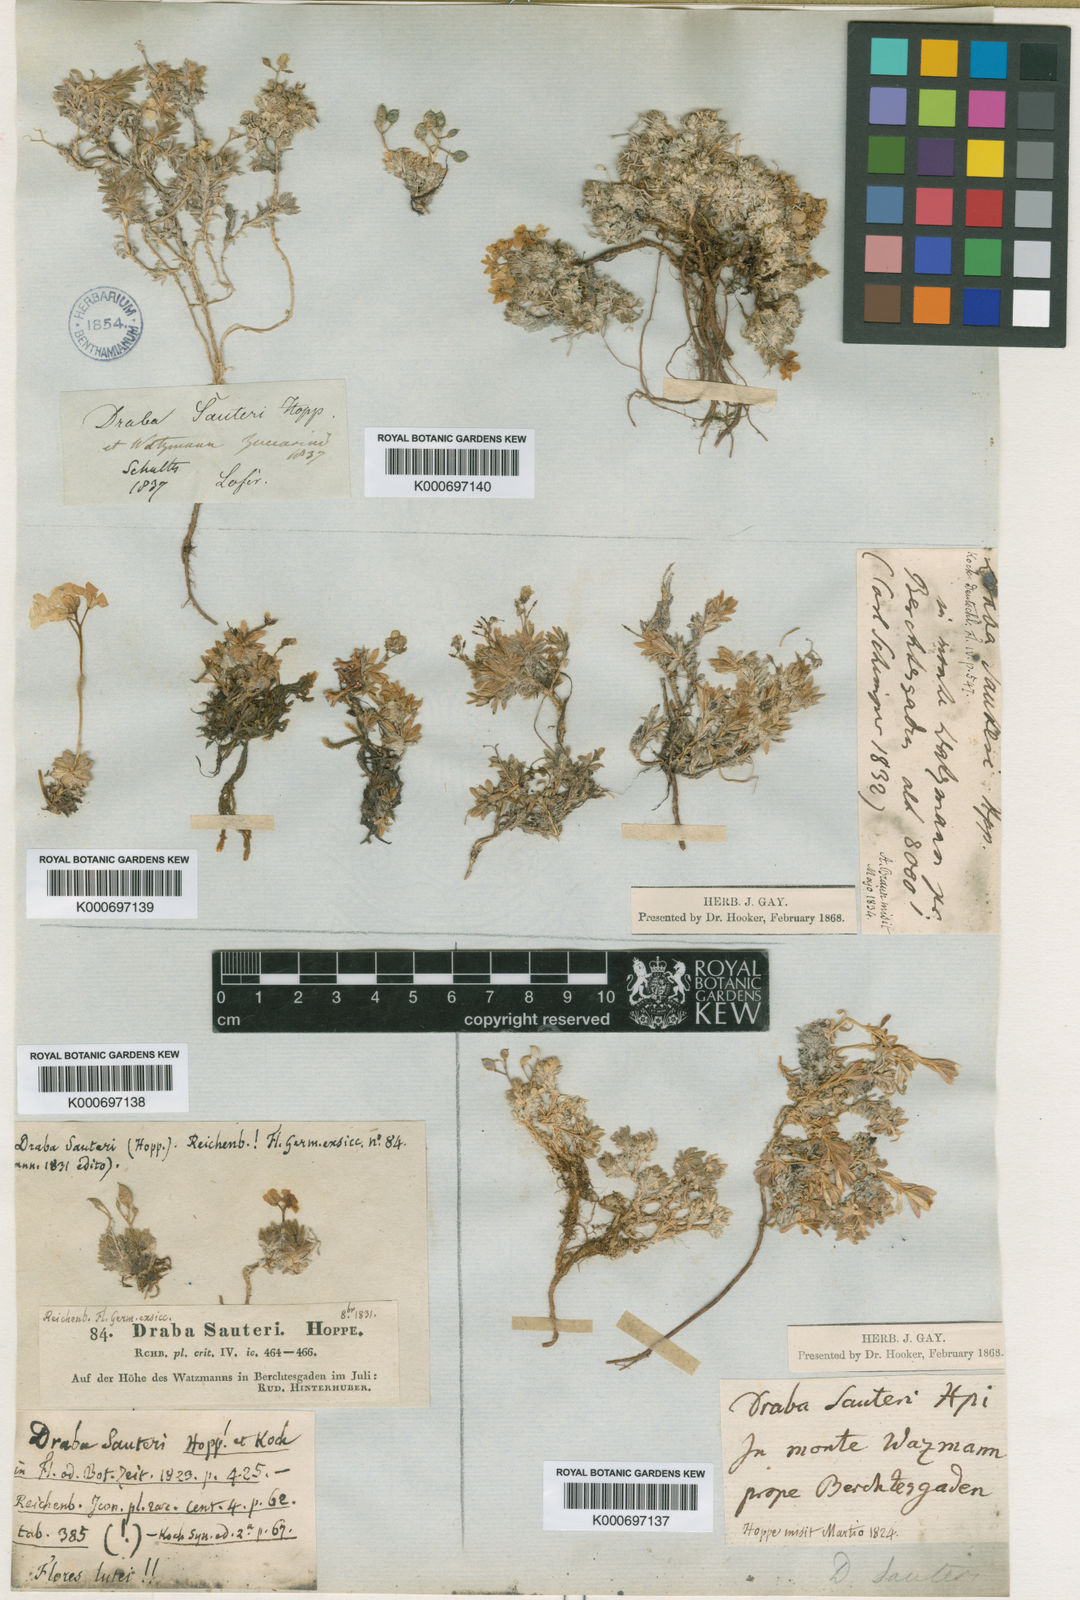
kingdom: Plantae
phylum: Tracheophyta
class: Magnoliopsida
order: Brassicales
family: Brassicaceae
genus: Draba
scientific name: Draba sauteri
